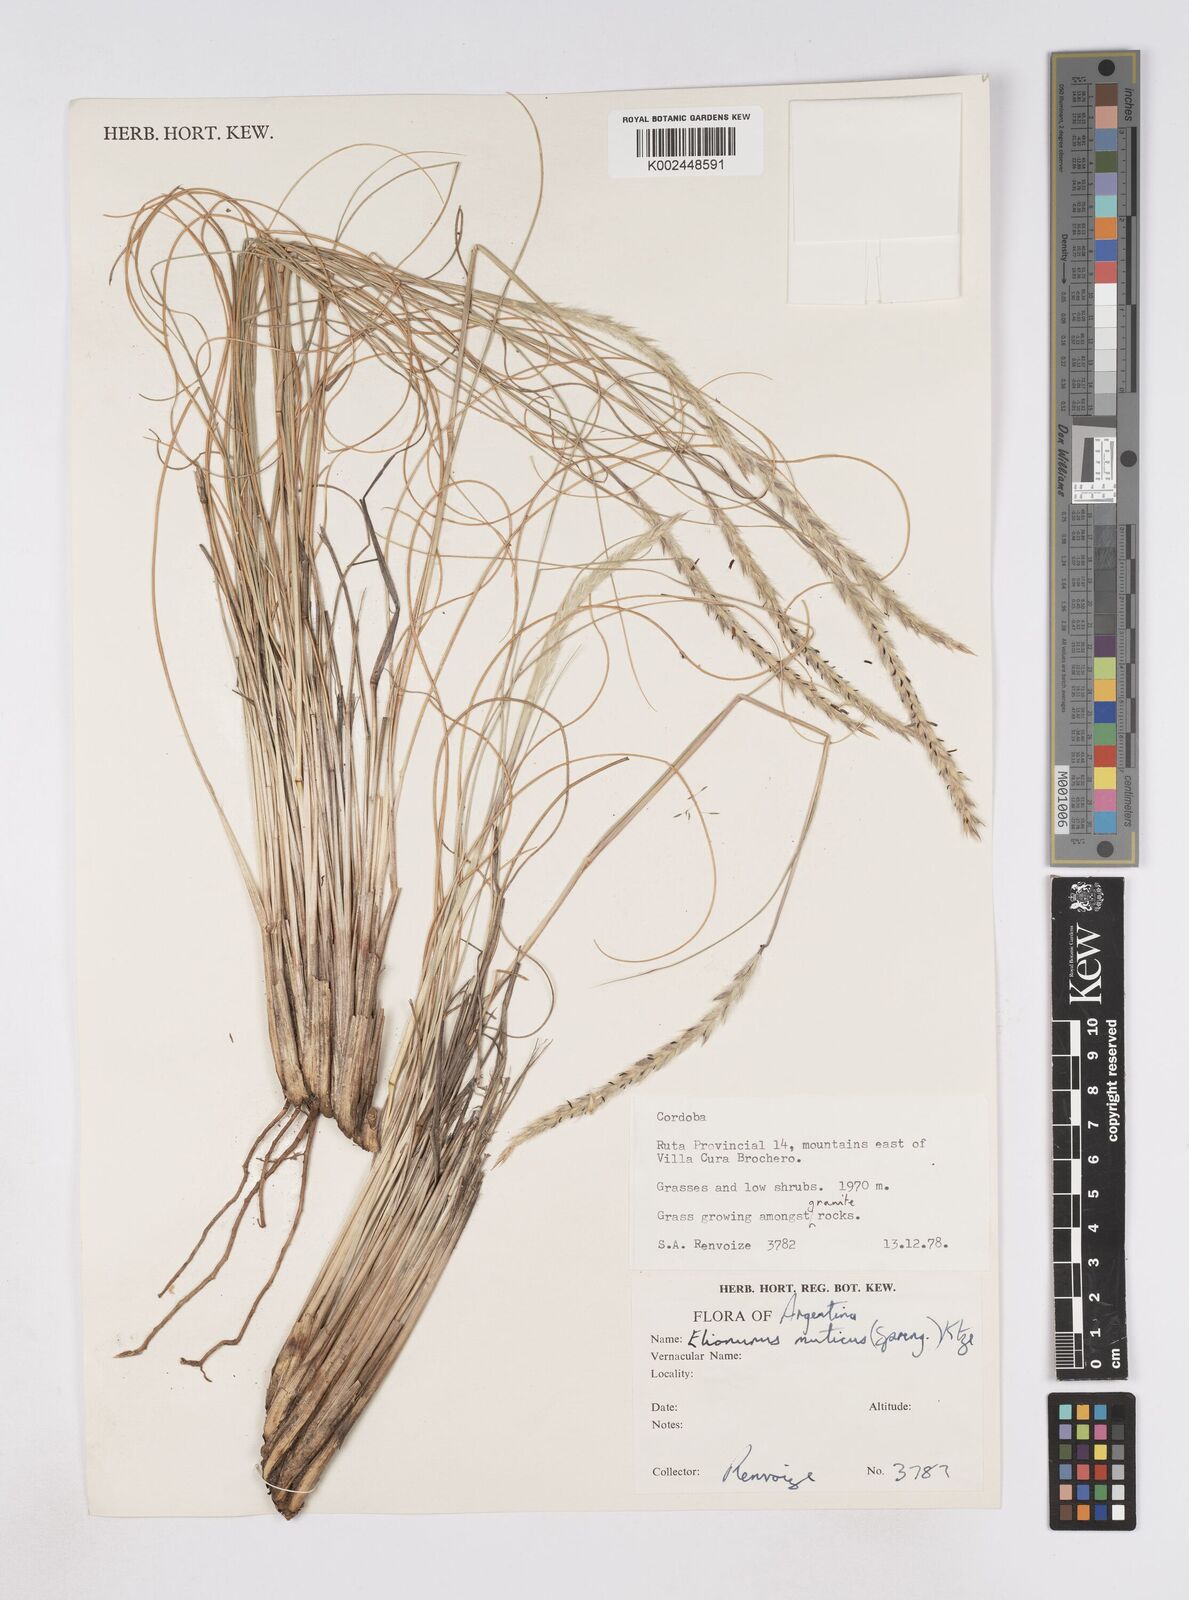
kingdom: Plantae
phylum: Tracheophyta
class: Liliopsida
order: Poales
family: Poaceae
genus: Elionurus
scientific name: Elionurus muticus
